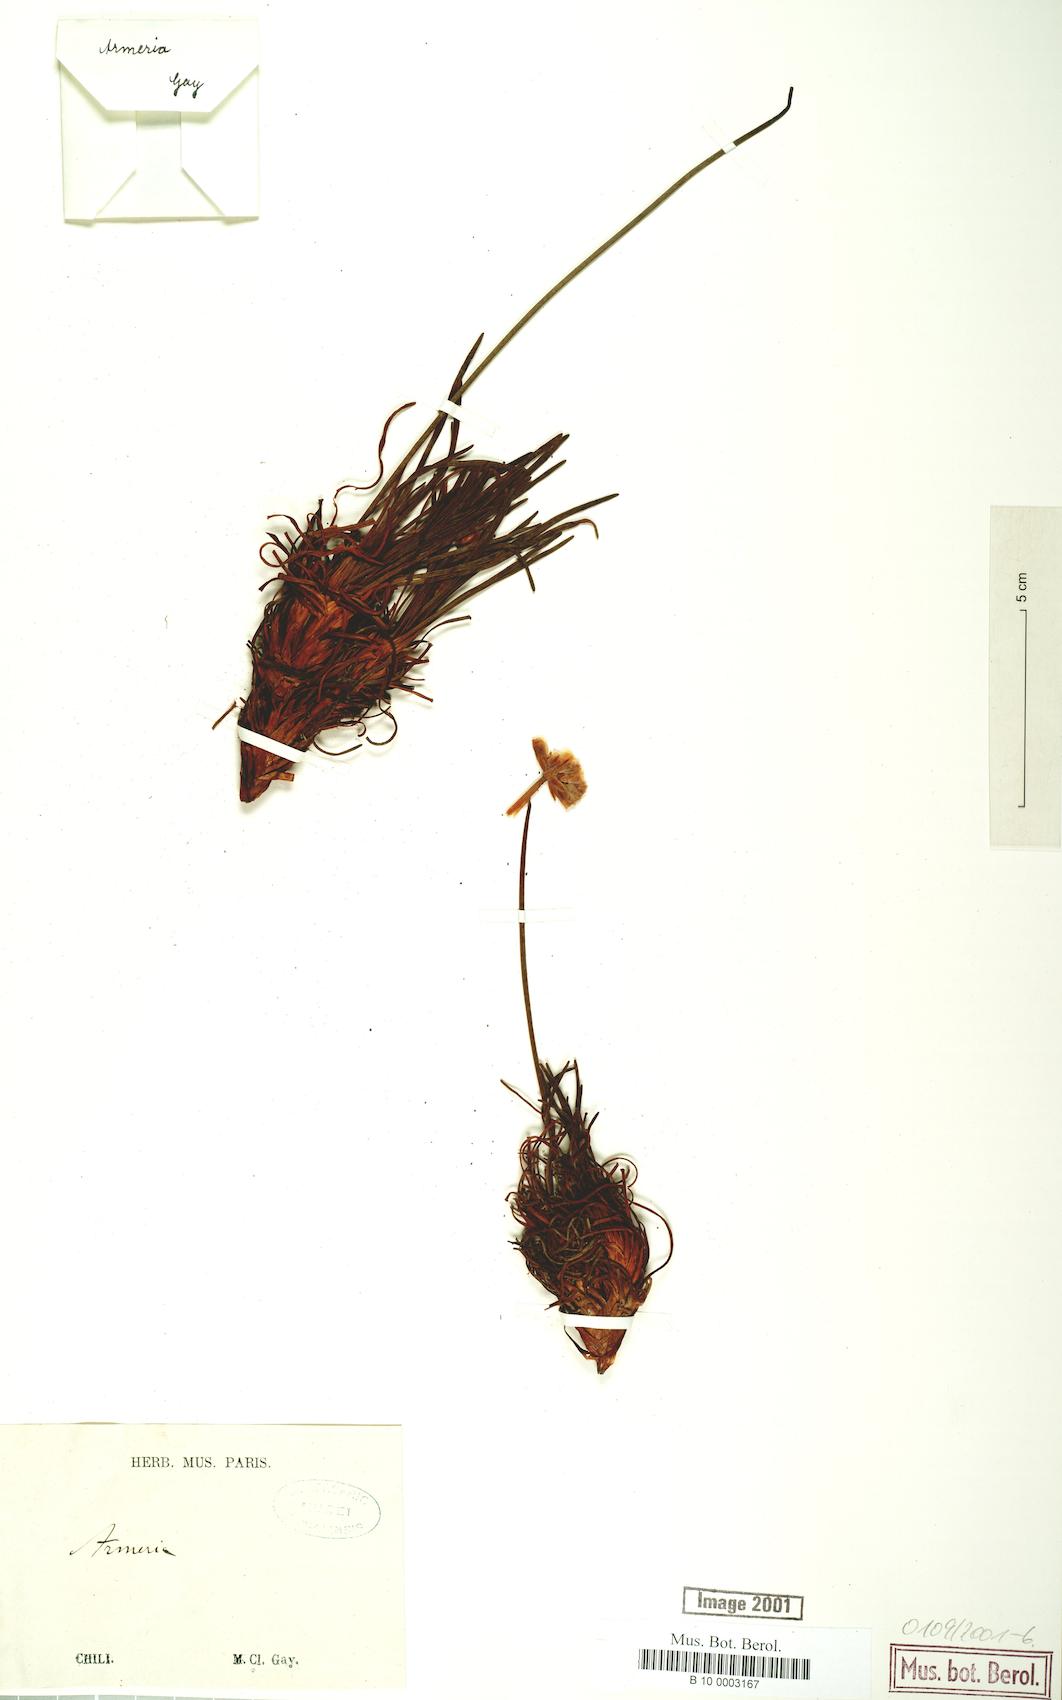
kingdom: Plantae
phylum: Tracheophyta
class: Magnoliopsida
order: Caryophyllales
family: Plumbaginaceae
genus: Armeria
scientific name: Armeria curvifolia
